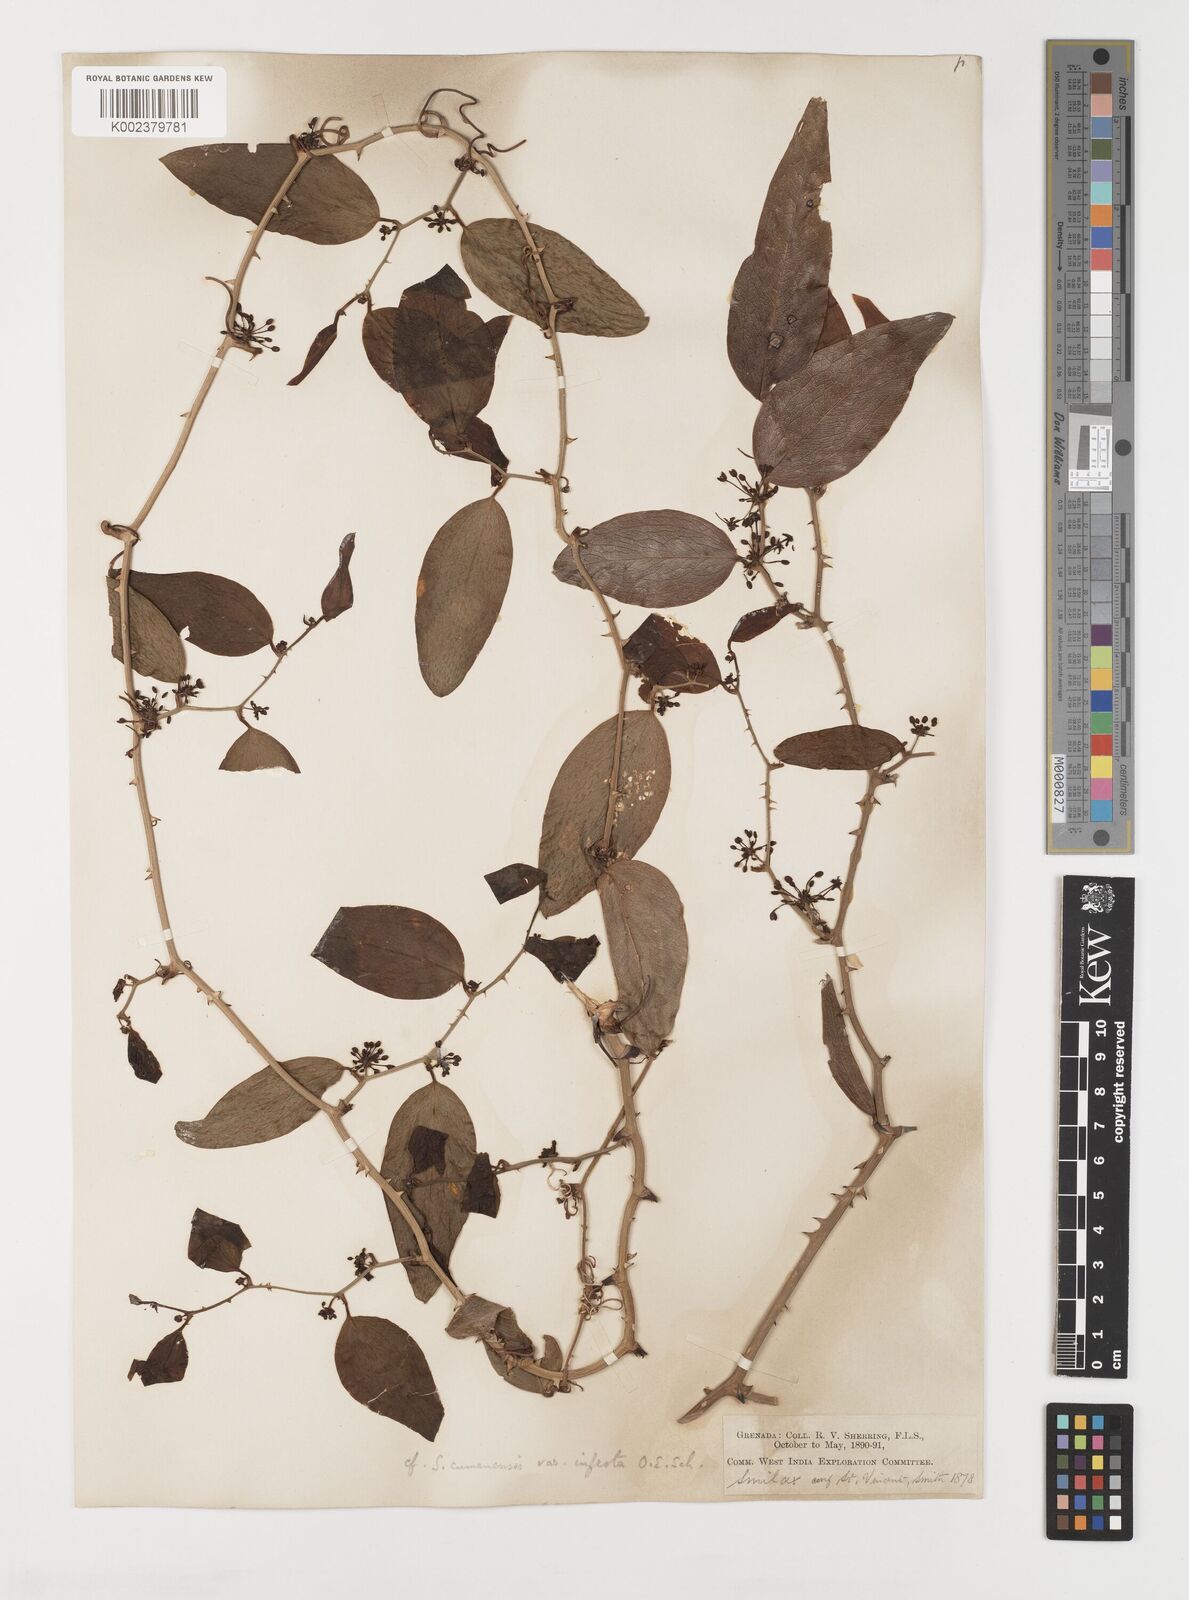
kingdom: Plantae
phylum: Tracheophyta
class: Liliopsida
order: Liliales
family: Smilacaceae
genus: Smilax
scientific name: Smilax oblongata
